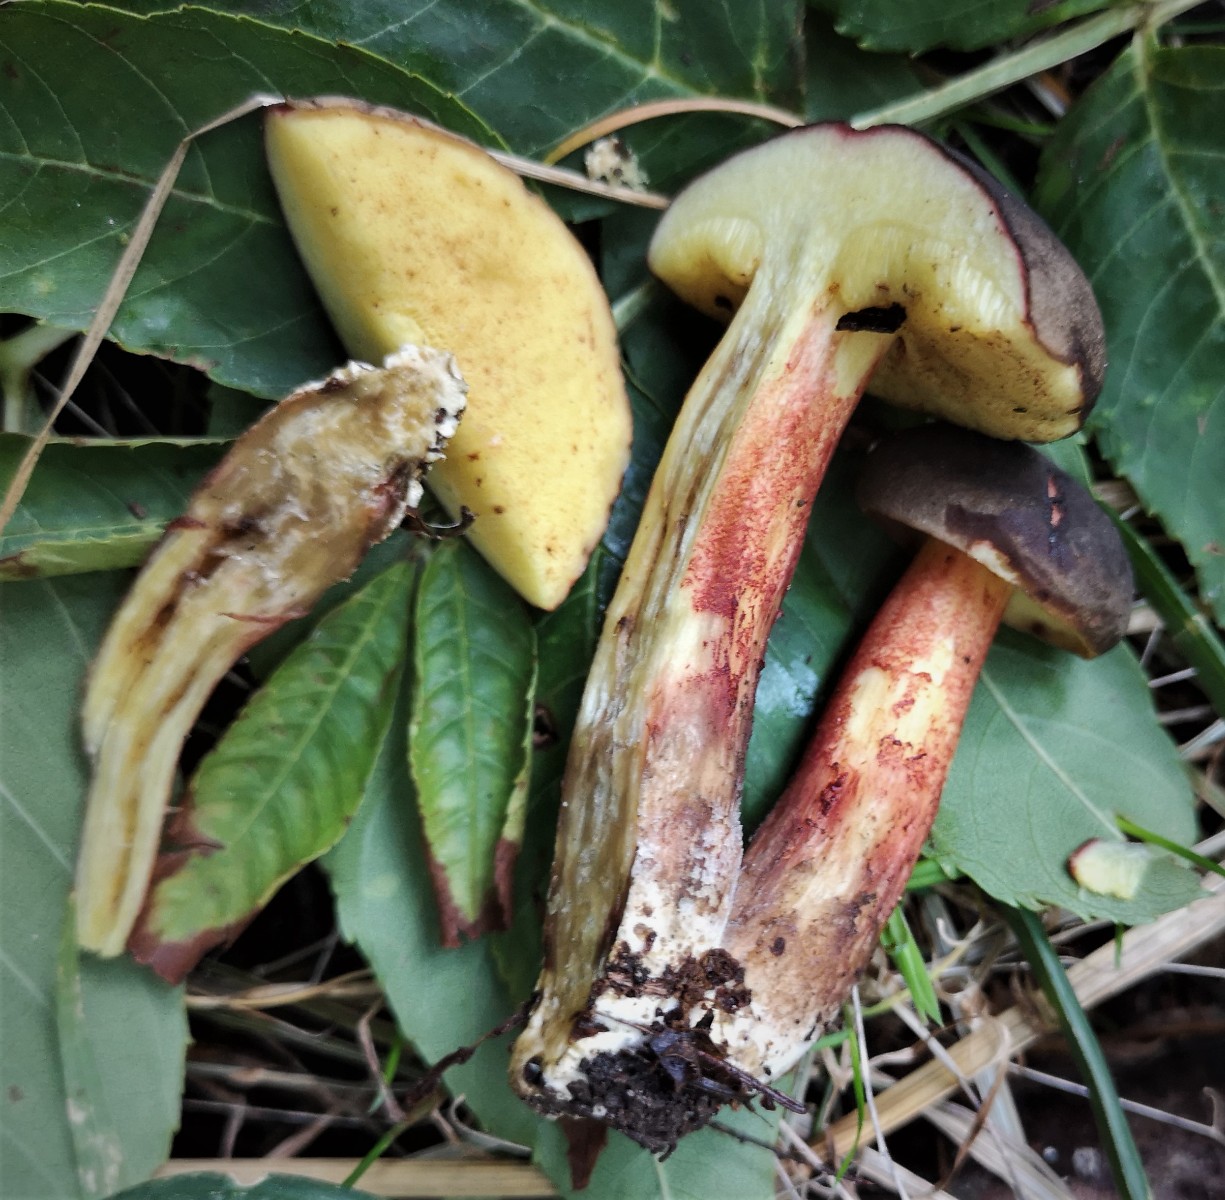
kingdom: Fungi
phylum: Basidiomycota
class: Agaricomycetes
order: Boletales
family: Boletaceae
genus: Xerocomellus
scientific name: Xerocomellus
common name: dværgrørhat
